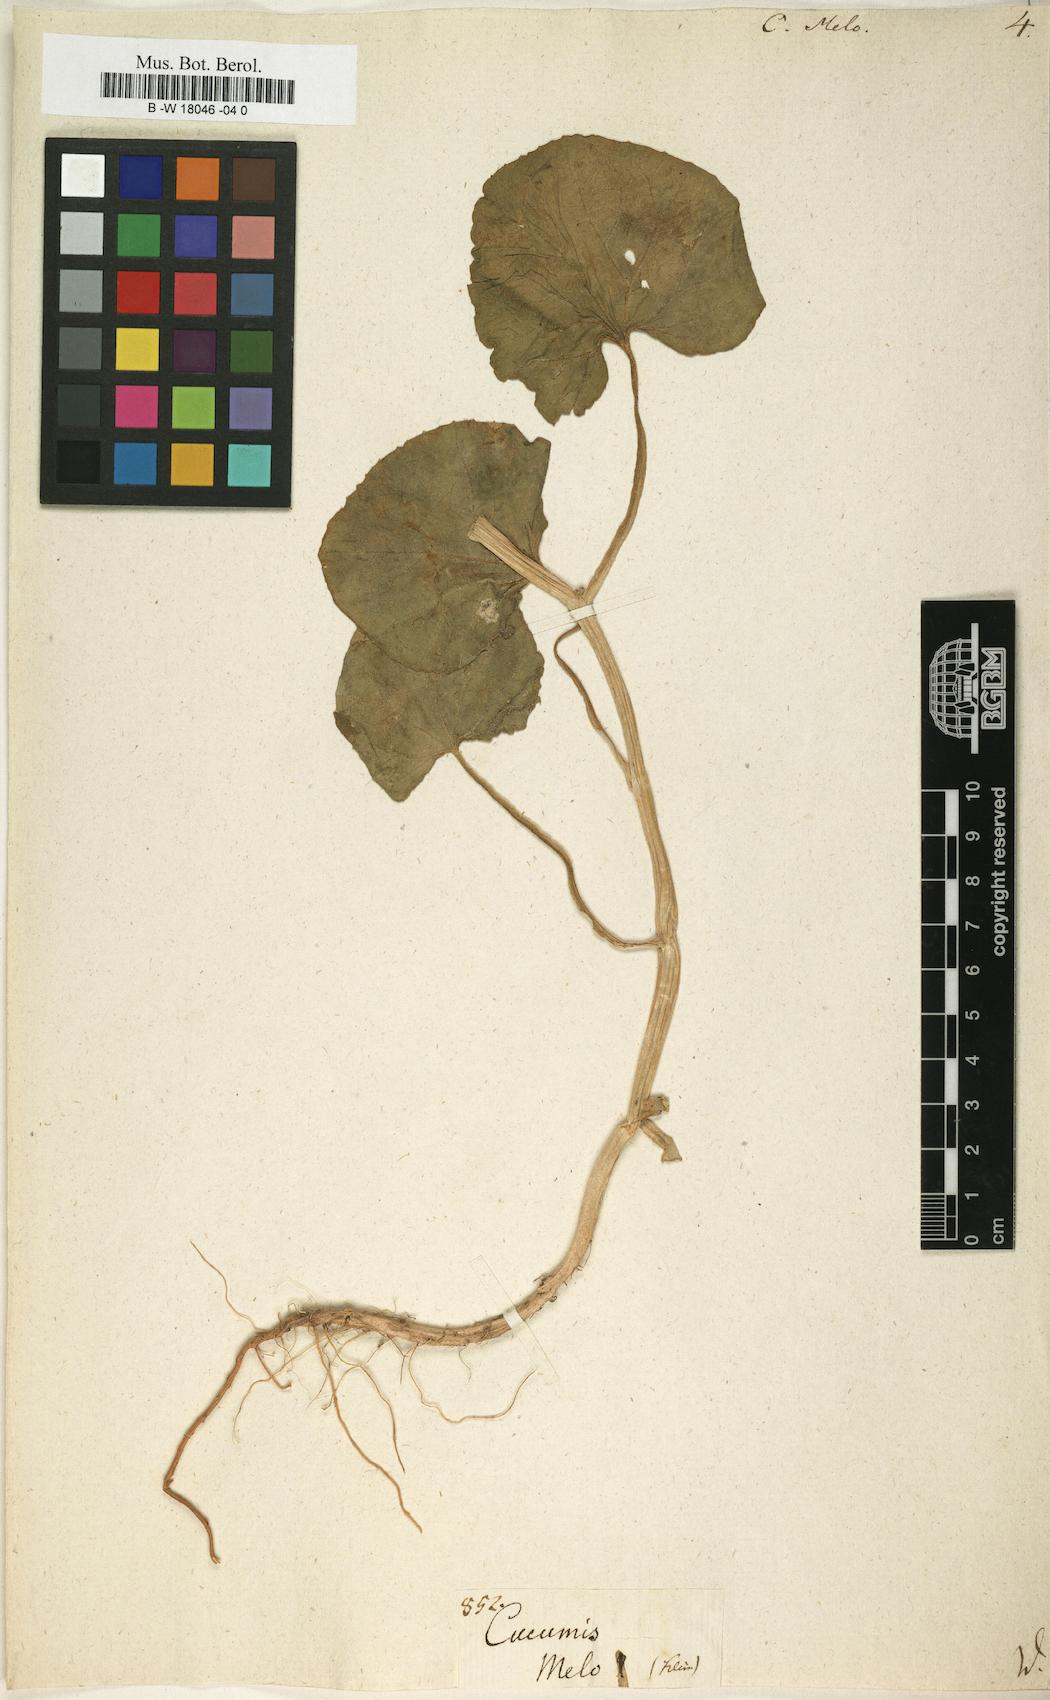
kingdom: Plantae
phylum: Tracheophyta
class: Magnoliopsida
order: Cucurbitales
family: Cucurbitaceae
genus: Cucumis
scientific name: Cucumis melo
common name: Melon
